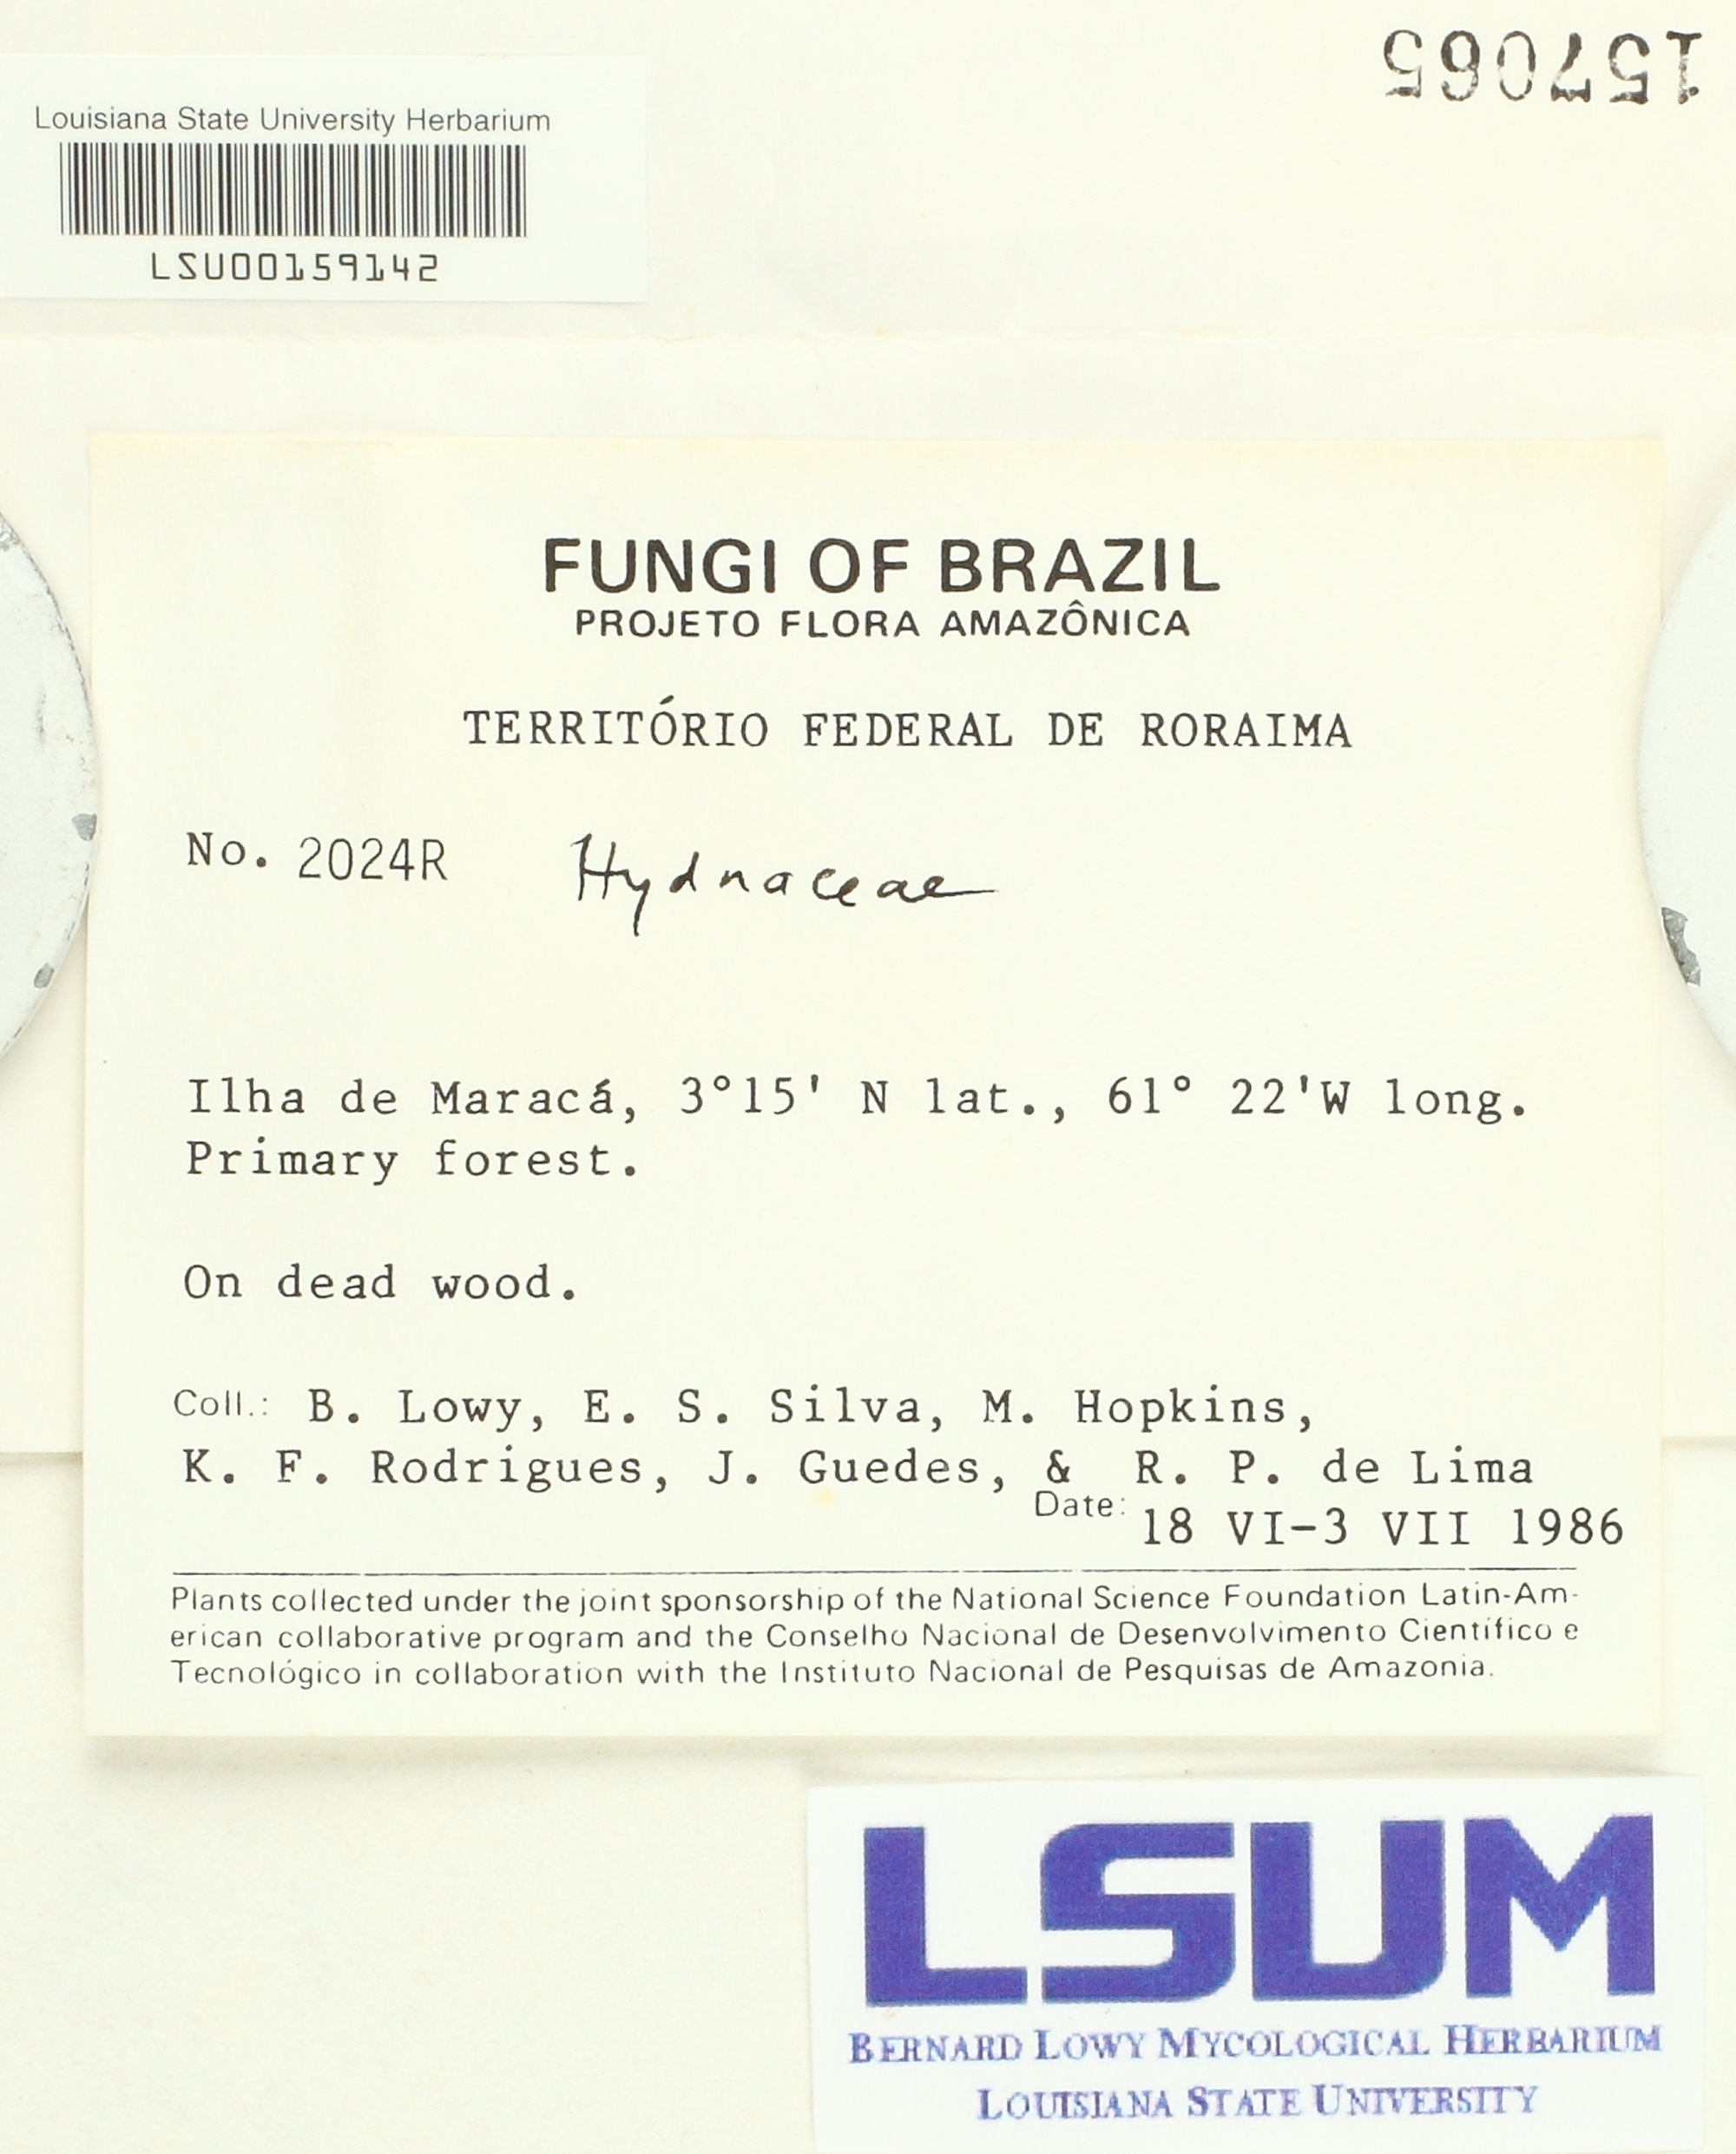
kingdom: Fungi
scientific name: Fungi
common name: Fungi
